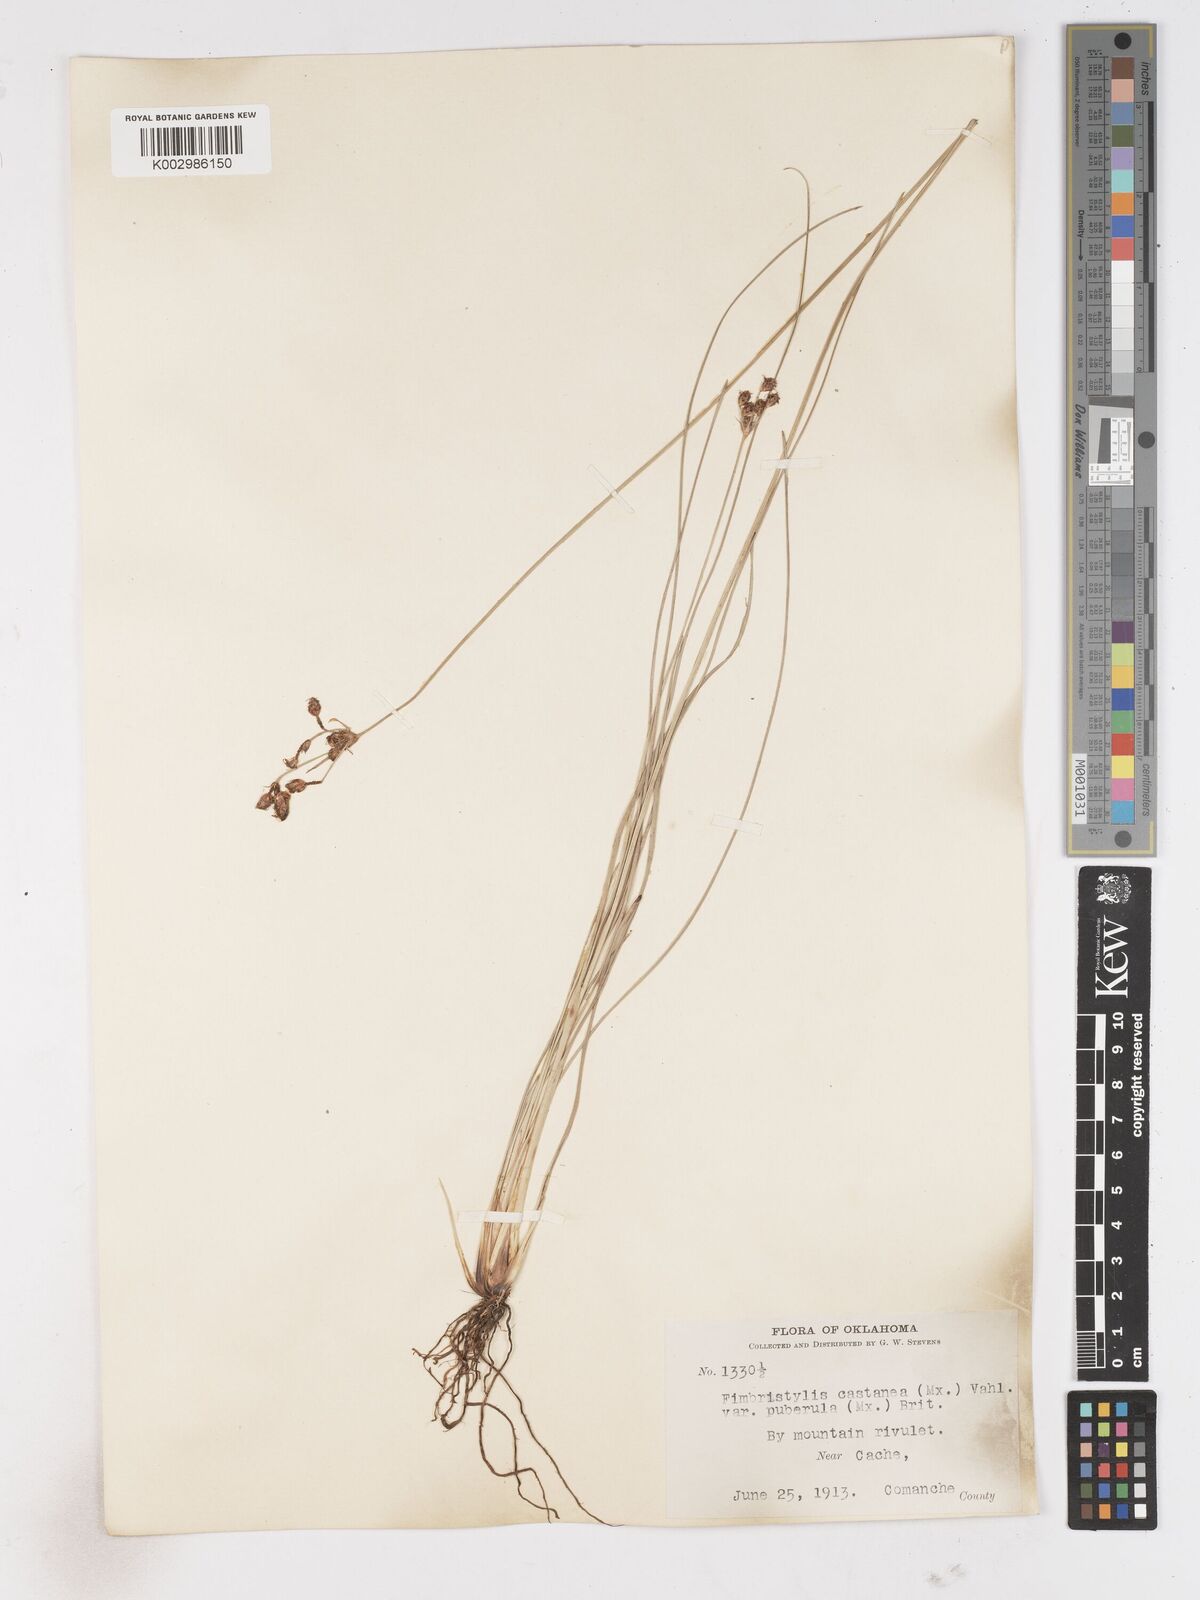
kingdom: Plantae
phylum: Tracheophyta
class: Liliopsida
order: Poales
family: Cyperaceae
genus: Fimbristylis
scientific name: Fimbristylis spadicea
